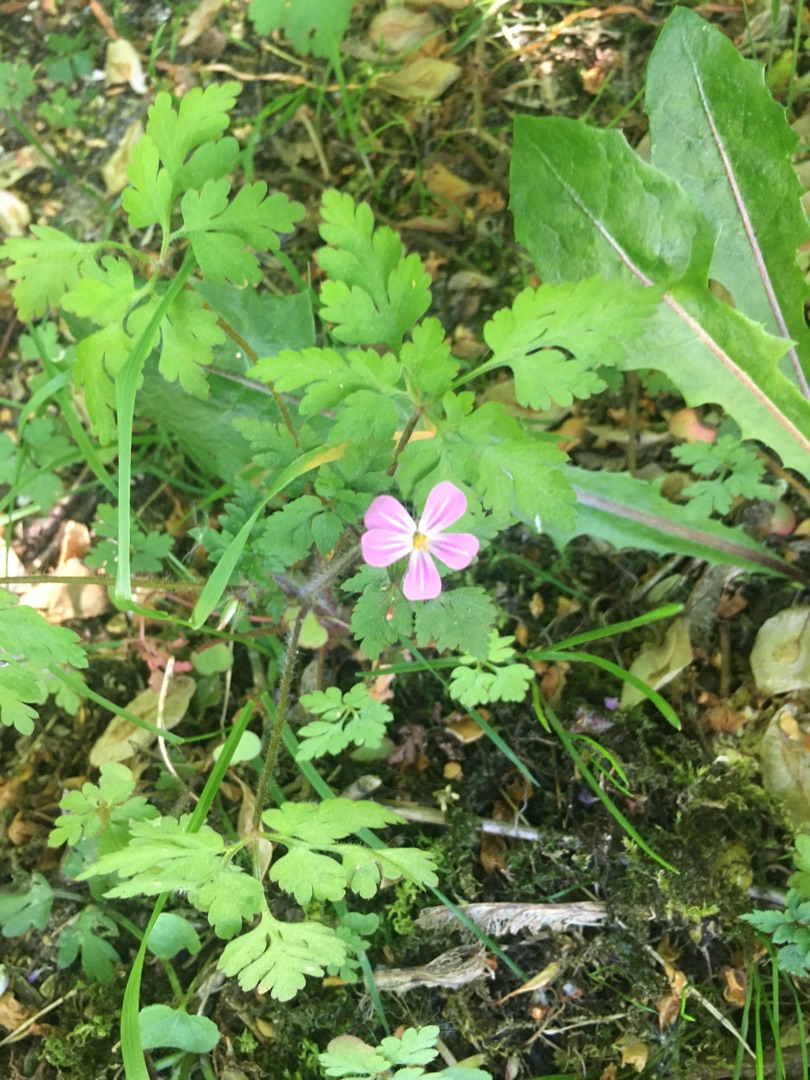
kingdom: Plantae
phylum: Tracheophyta
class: Magnoliopsida
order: Geraniales
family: Geraniaceae
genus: Geranium
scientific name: Geranium robertianum
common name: Stinkende storkenæb
